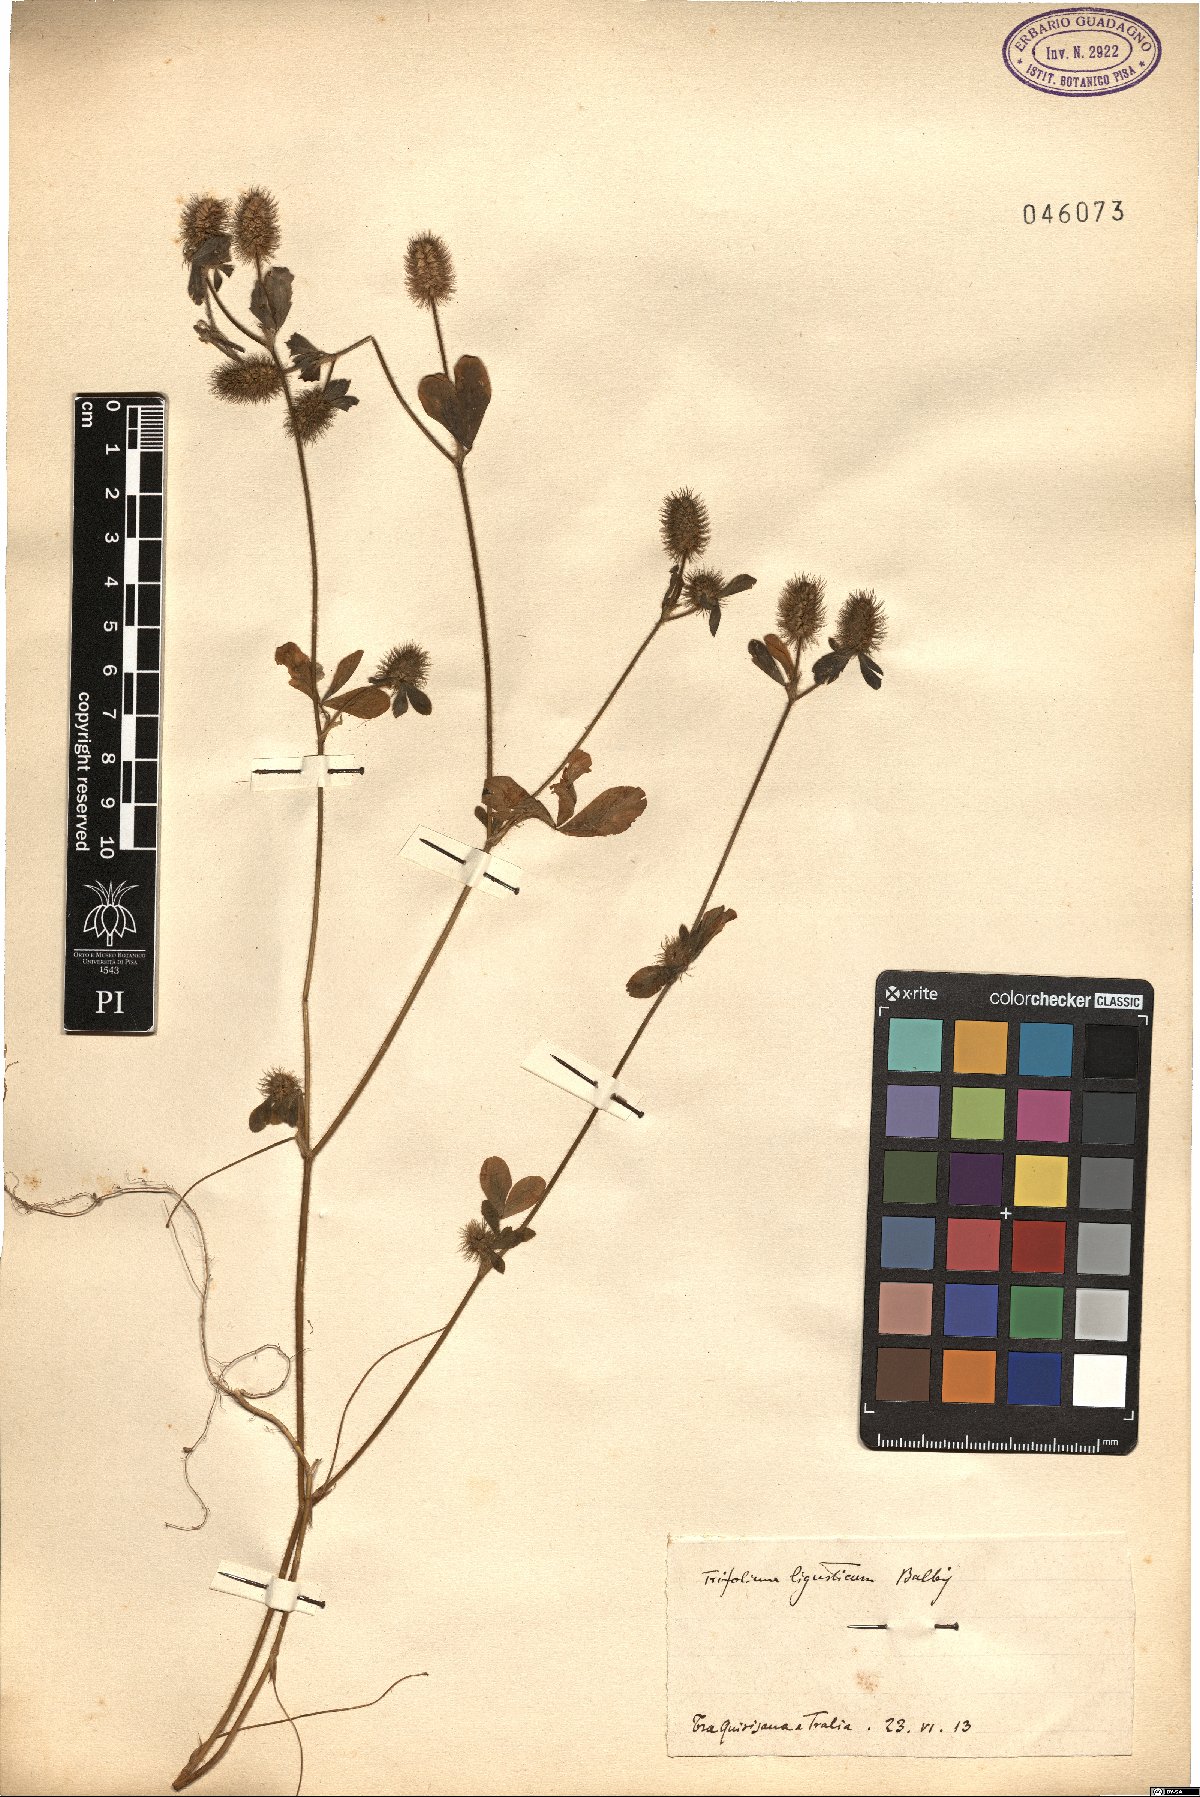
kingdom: Plantae
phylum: Tracheophyta
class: Magnoliopsida
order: Fabales
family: Fabaceae
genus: Trifolium
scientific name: Trifolium ligusticum
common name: Ligurian clover
